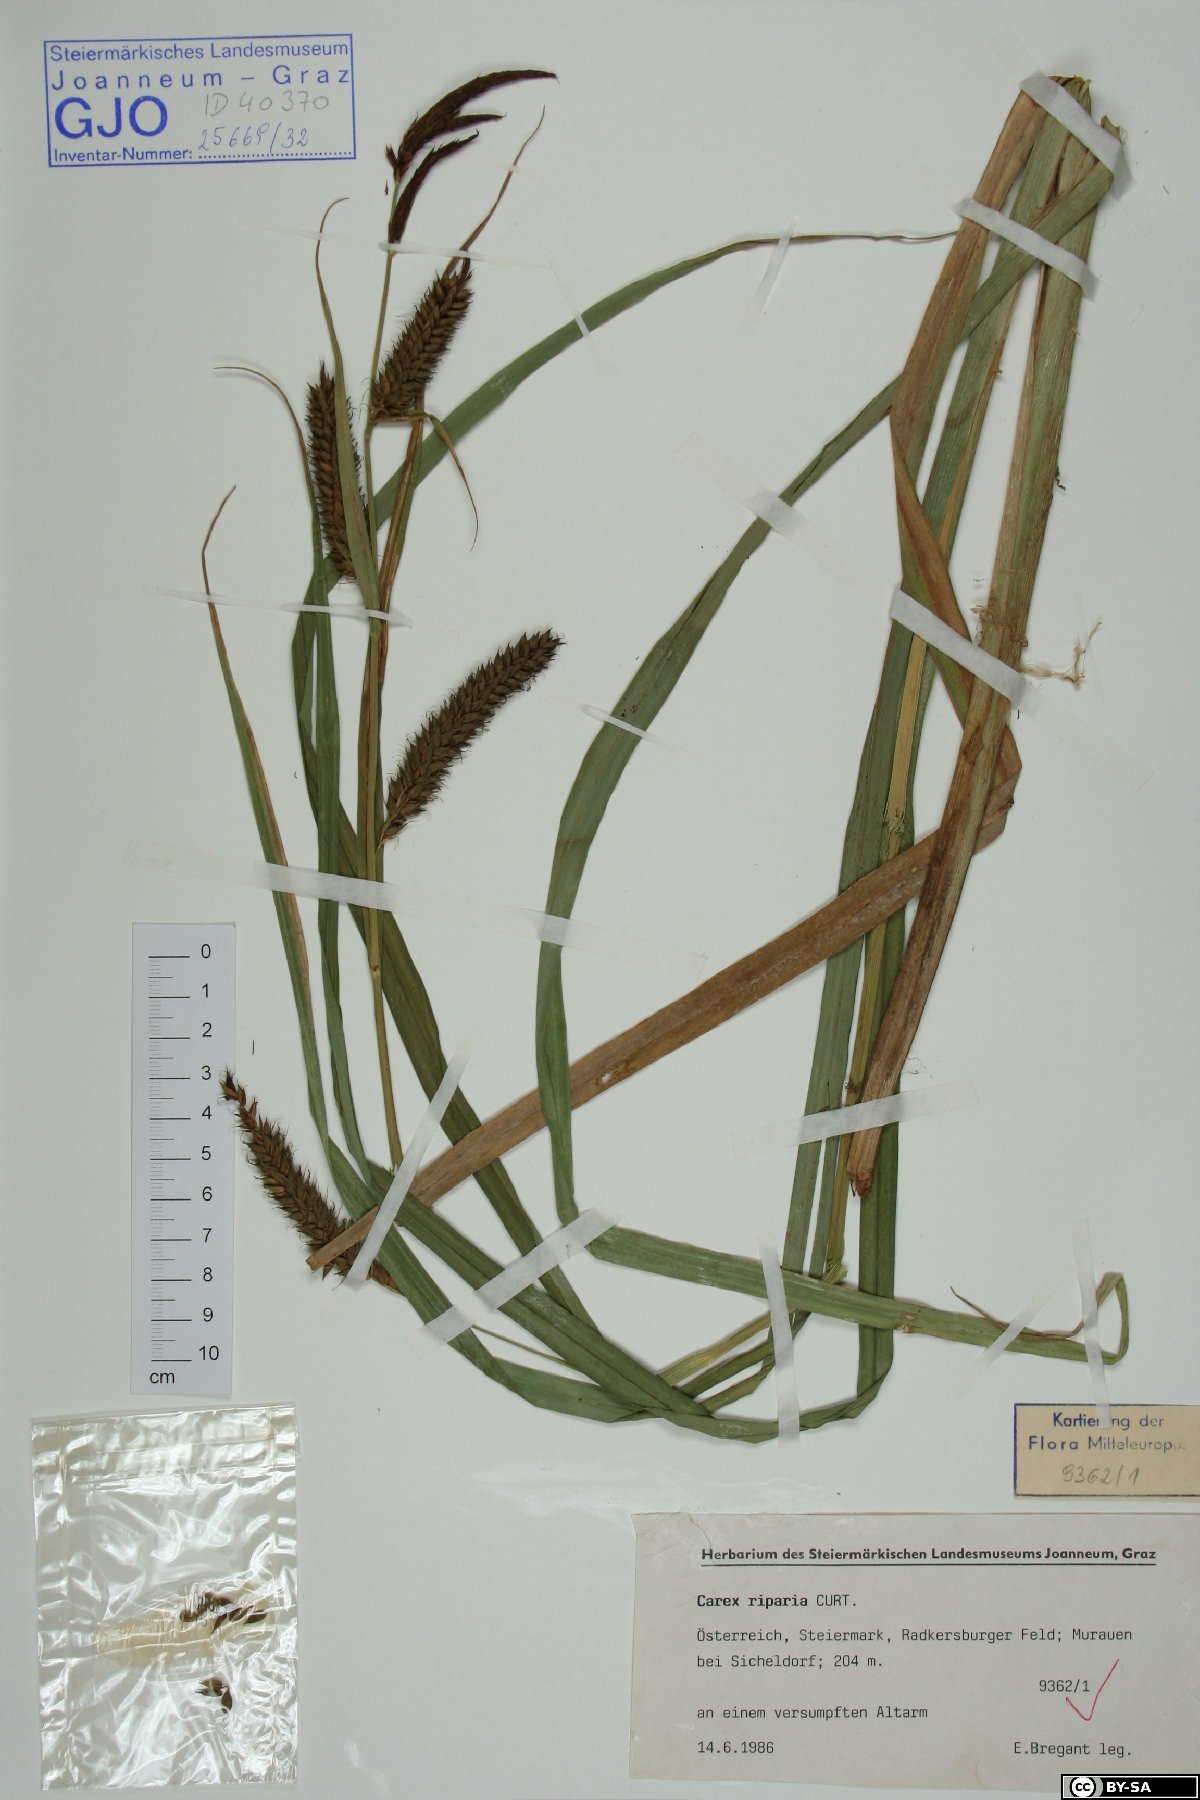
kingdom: Plantae
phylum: Tracheophyta
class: Liliopsida
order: Poales
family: Cyperaceae
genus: Carex
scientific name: Carex riparia
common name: Greater pond-sedge
